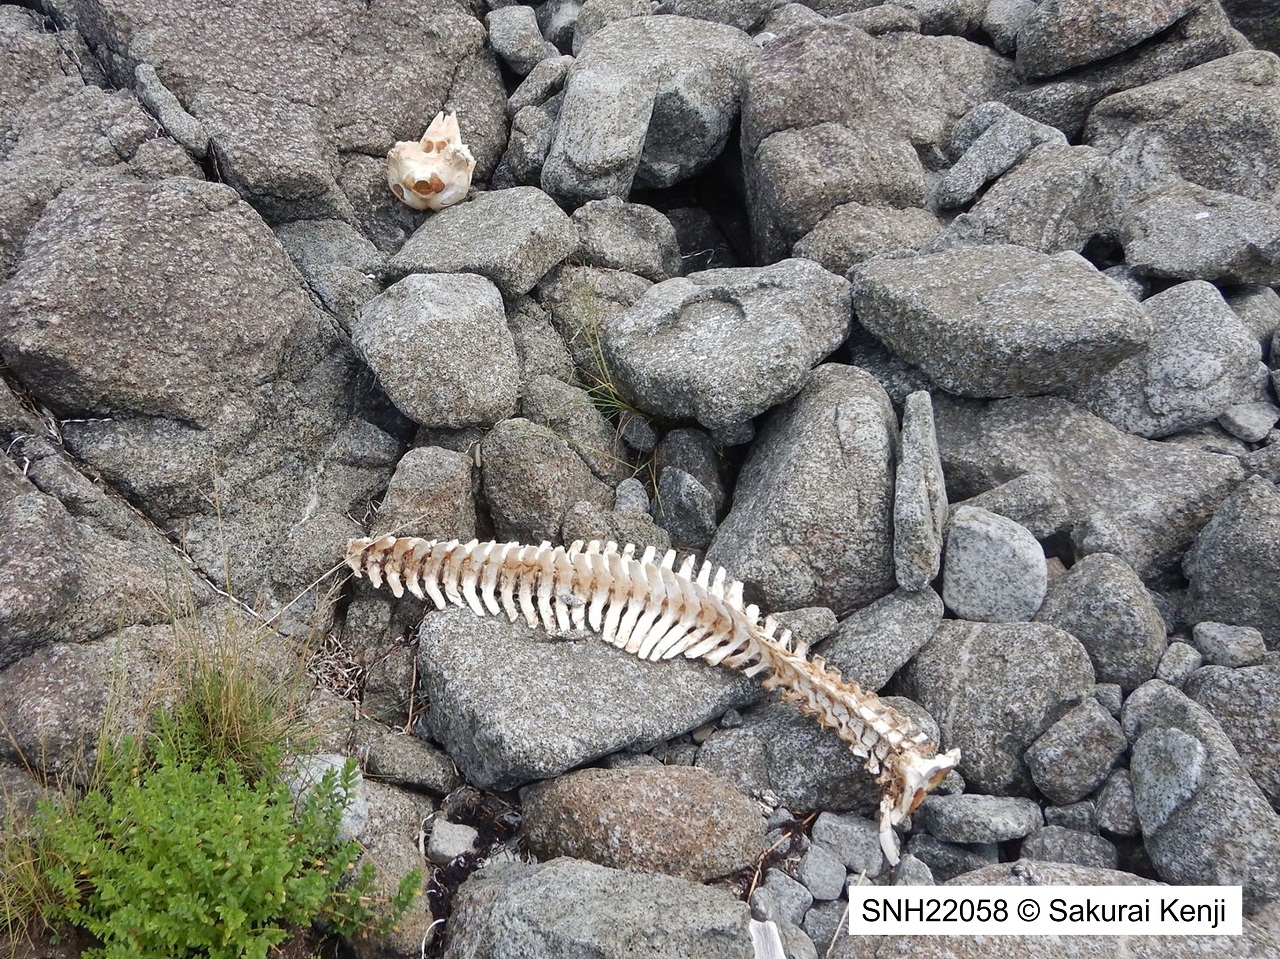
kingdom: Animalia
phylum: Chordata
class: Mammalia
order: Cetacea
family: Phocoenidae
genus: Phocoena
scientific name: Phocoena phocoena
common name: Harbour porpoise
